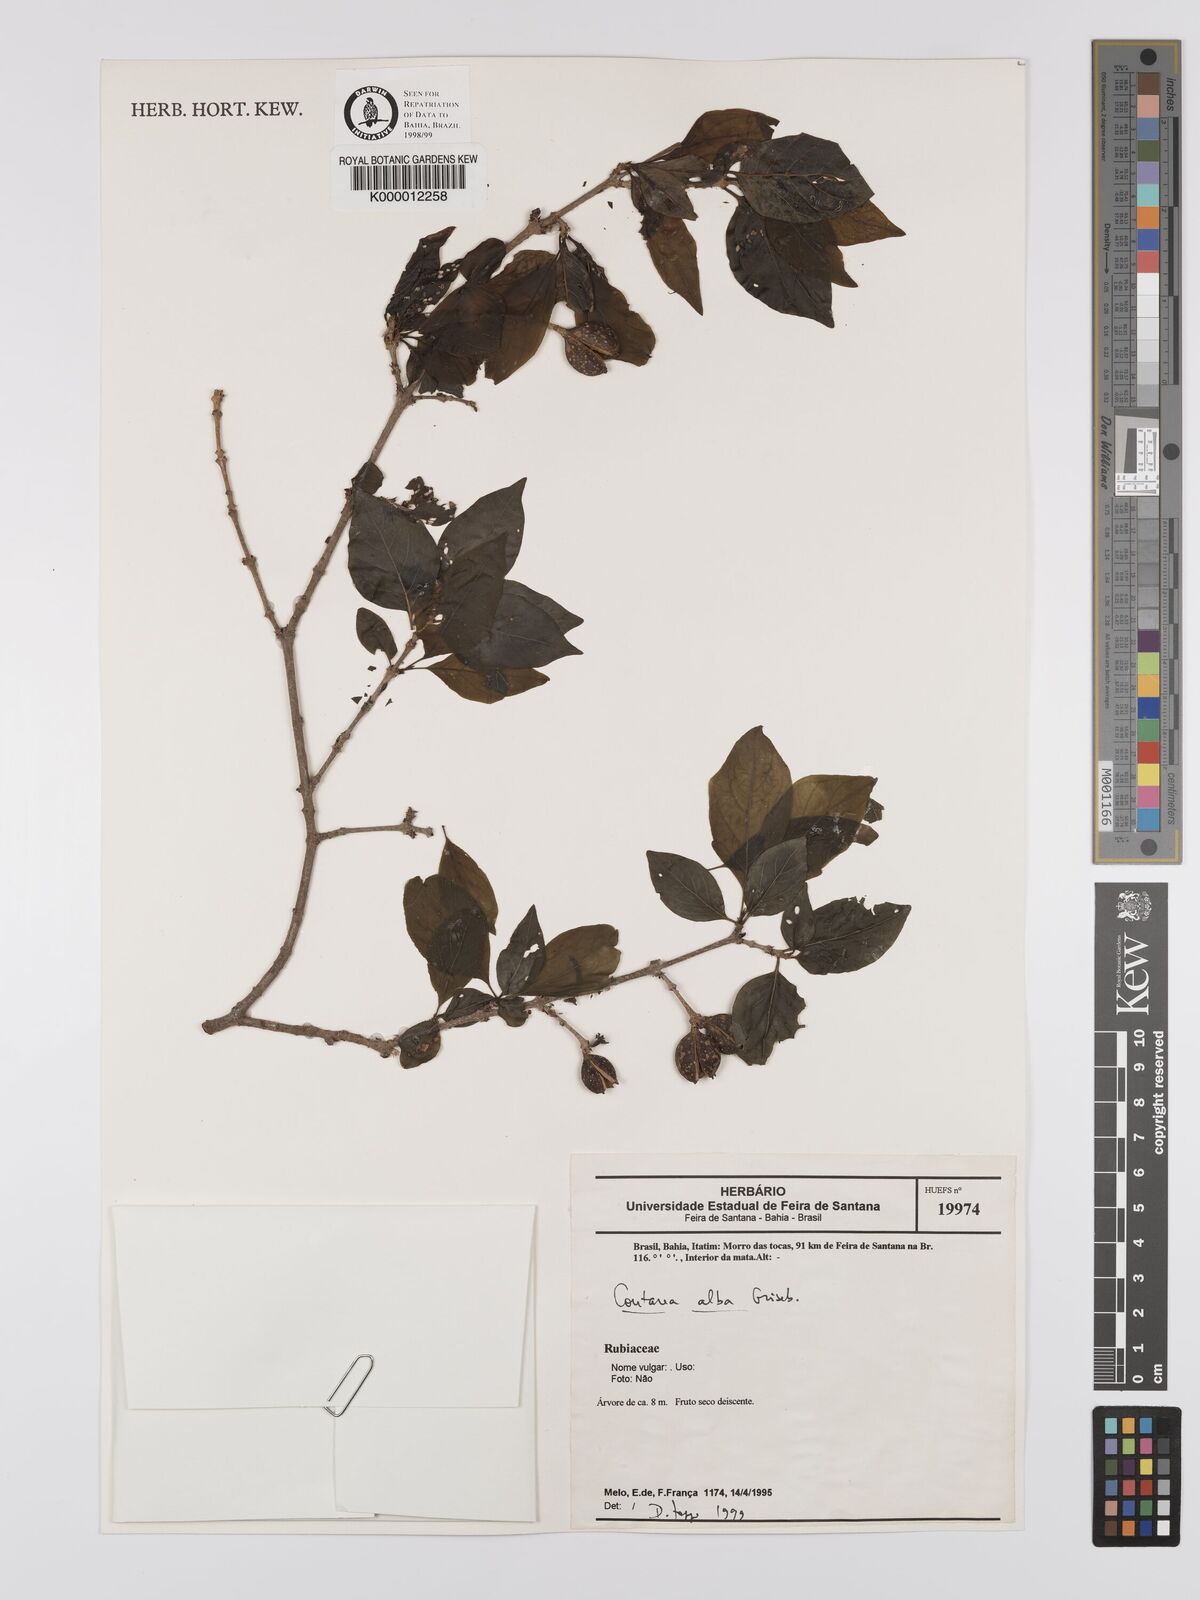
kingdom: Plantae
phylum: Tracheophyta
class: Magnoliopsida
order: Gentianales
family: Rubiaceae
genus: Coutarea
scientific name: Coutarea alba
